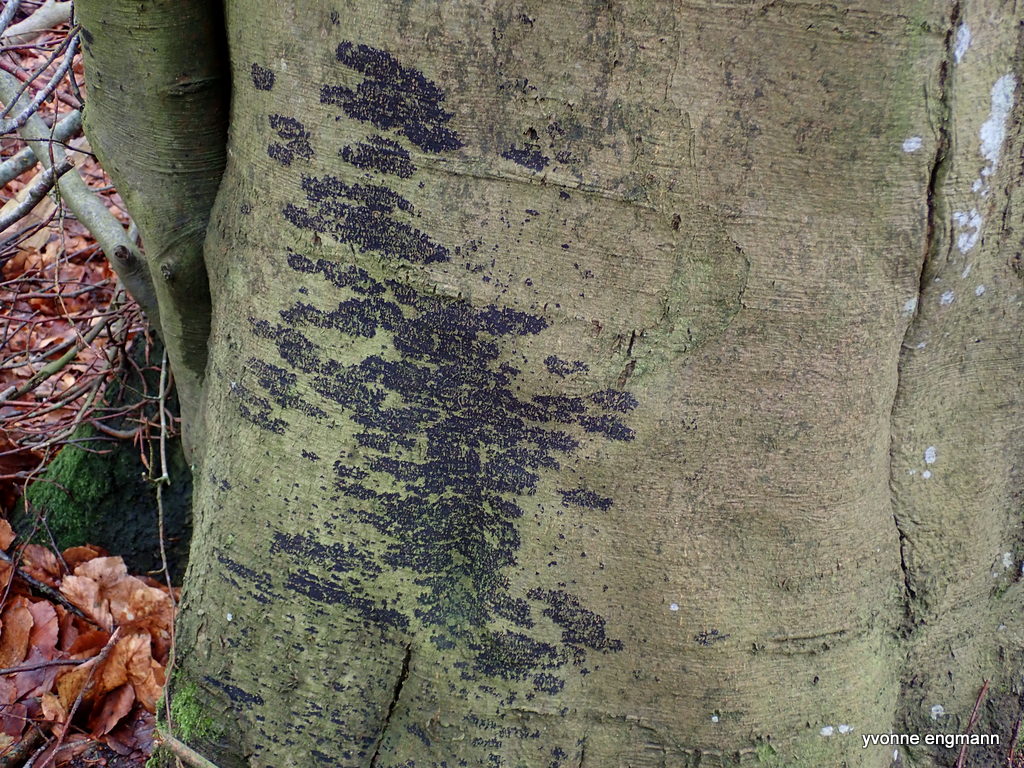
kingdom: Fungi
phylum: Ascomycota
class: Leotiomycetes
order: Rhytismatales
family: Ascodichaenaceae
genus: Ascodichaena
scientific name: Ascodichaena rugosa
